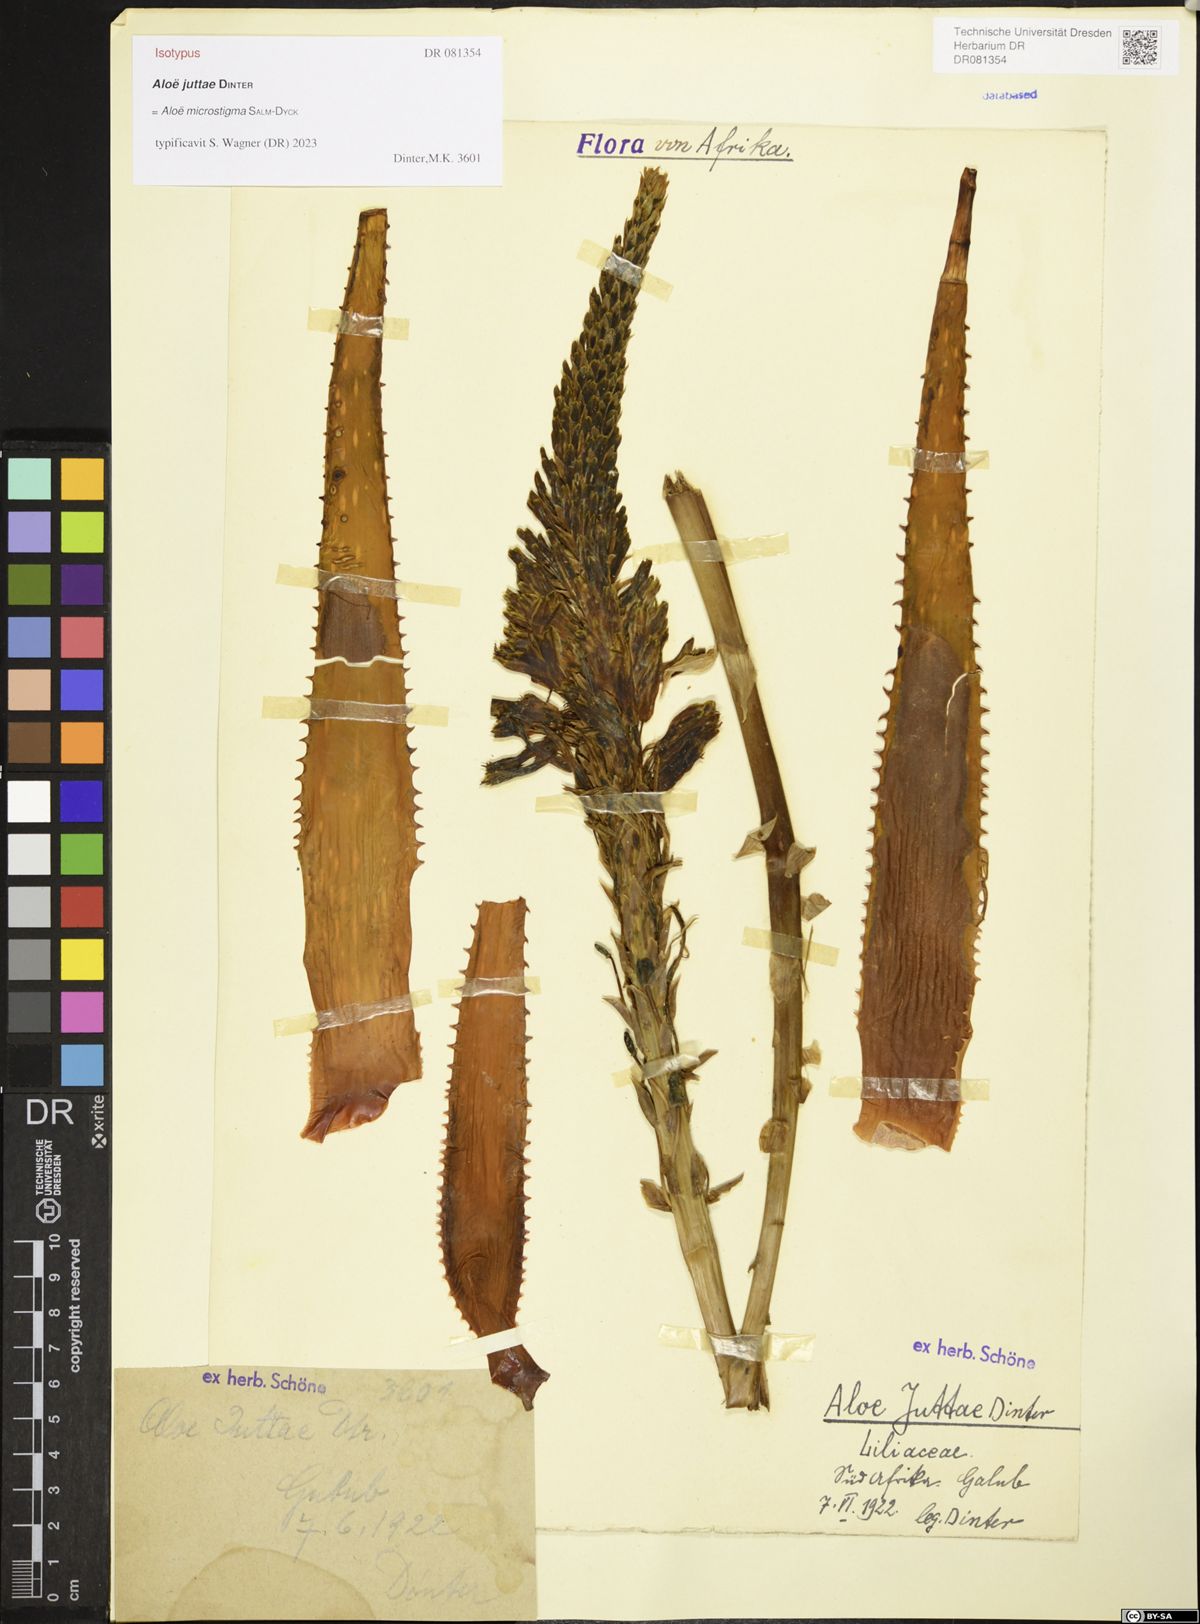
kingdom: Plantae
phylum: Tracheophyta
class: Liliopsida
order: Asparagales
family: Asphodelaceae
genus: Aloe
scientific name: Aloe microstigma
